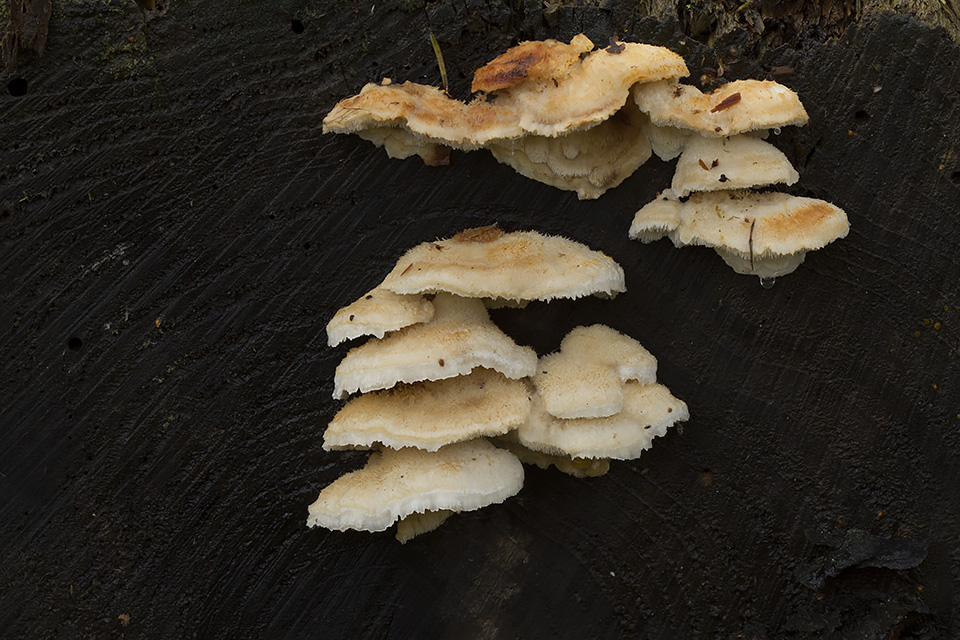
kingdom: Fungi
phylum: Basidiomycota
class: Agaricomycetes
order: Polyporales
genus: Fuscopostia
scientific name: Fuscopostia fragilis
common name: brunende kødporesvamp
